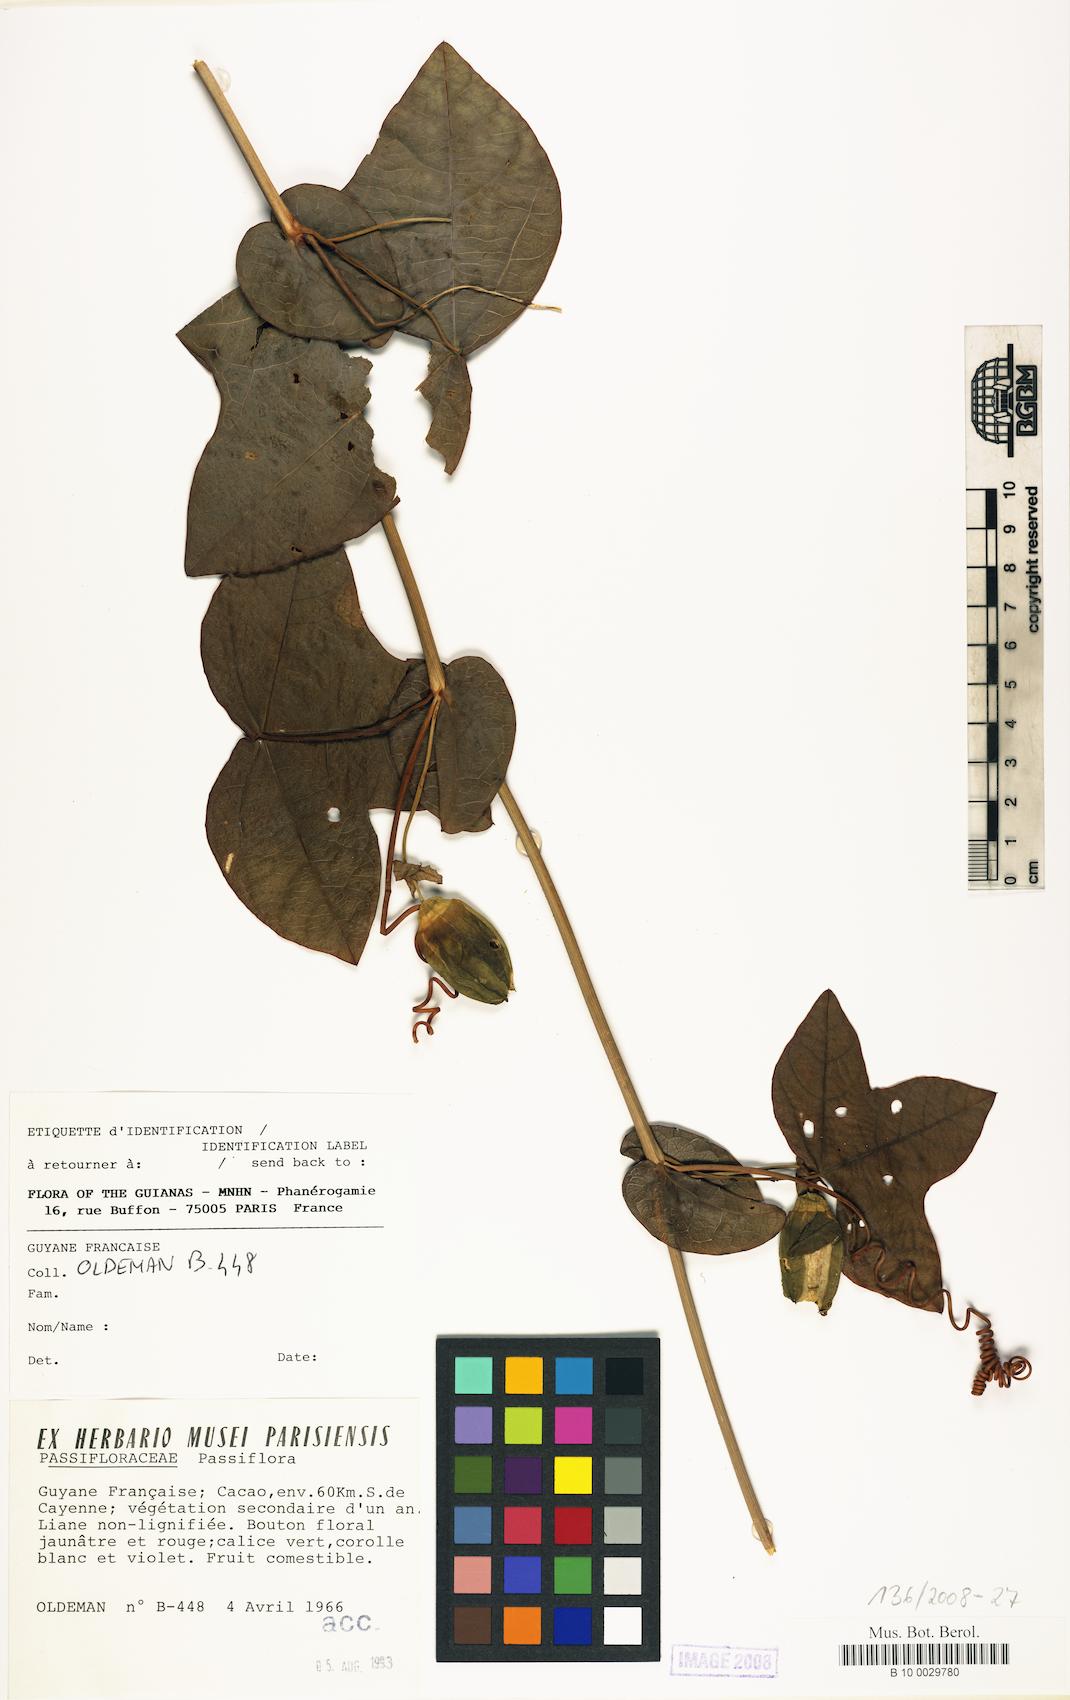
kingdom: Plantae
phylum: Tracheophyta
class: Magnoliopsida
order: Malpighiales
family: Passifloraceae
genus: Passiflora
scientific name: Passiflora
